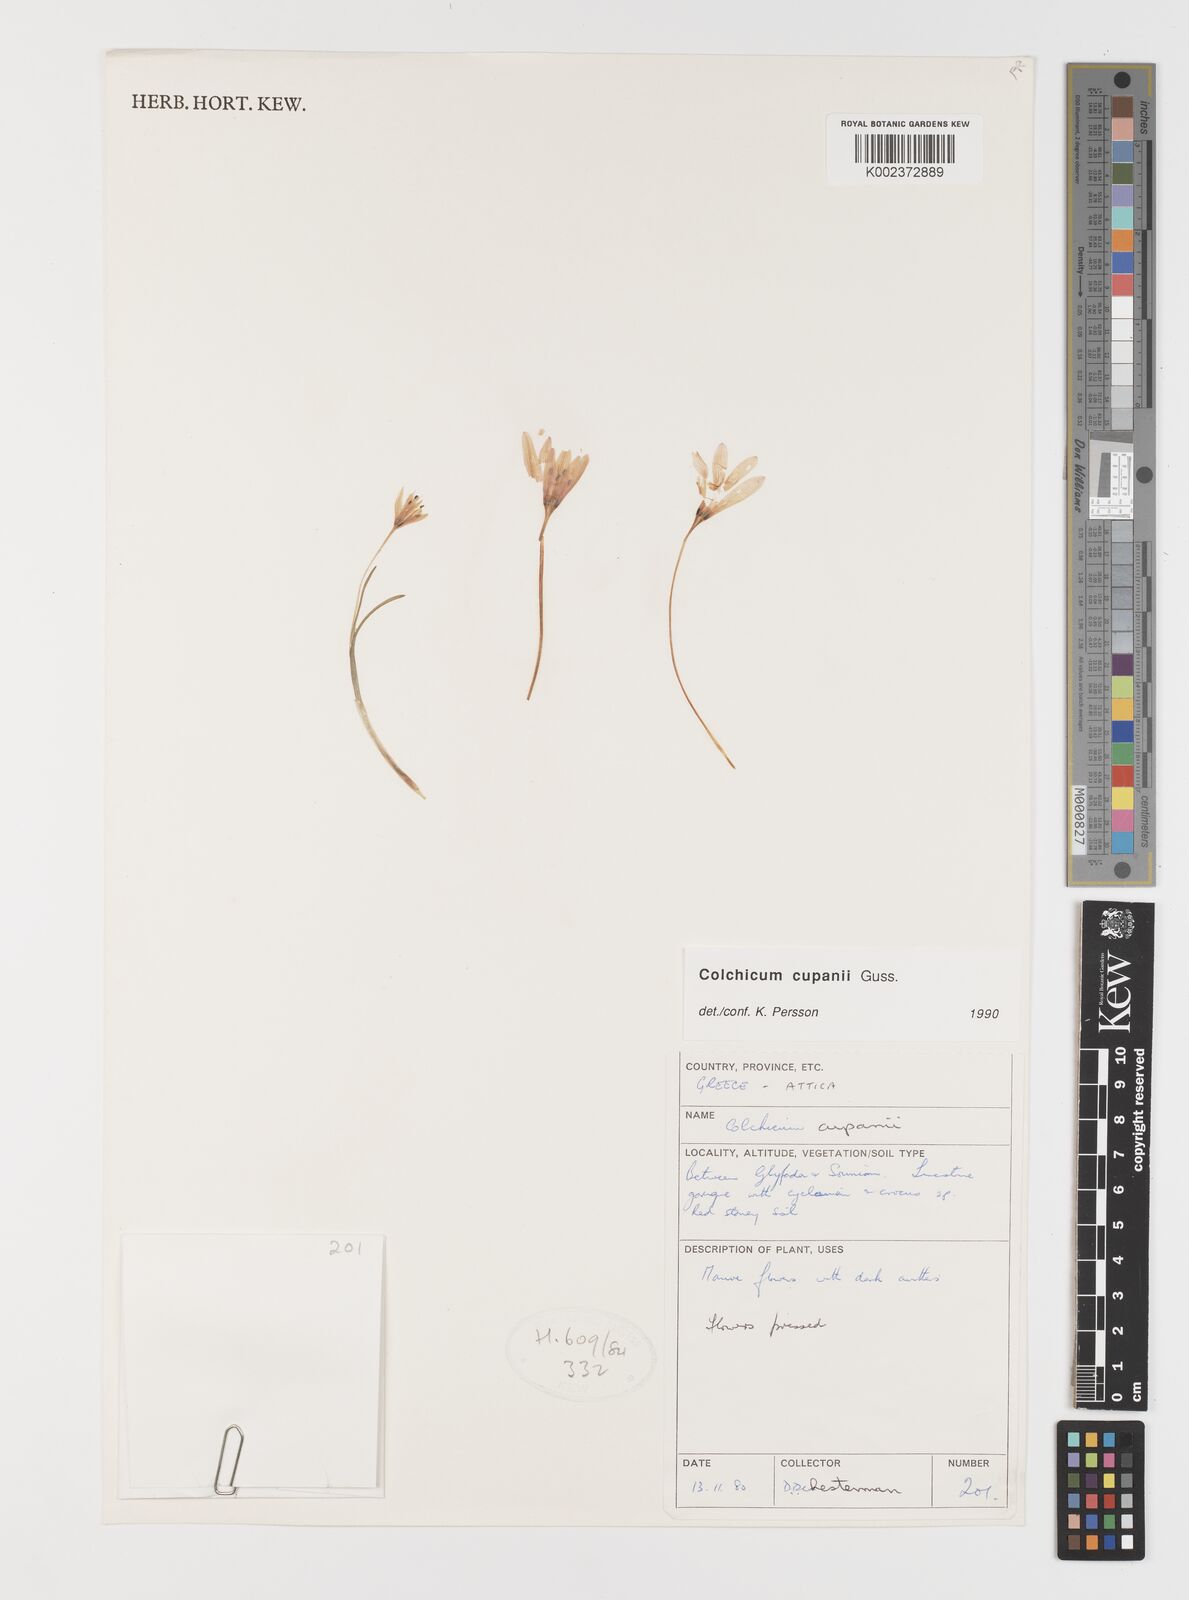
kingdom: Plantae
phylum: Tracheophyta
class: Liliopsida
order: Liliales
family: Colchicaceae
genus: Colchicum
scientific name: Colchicum cupanii
